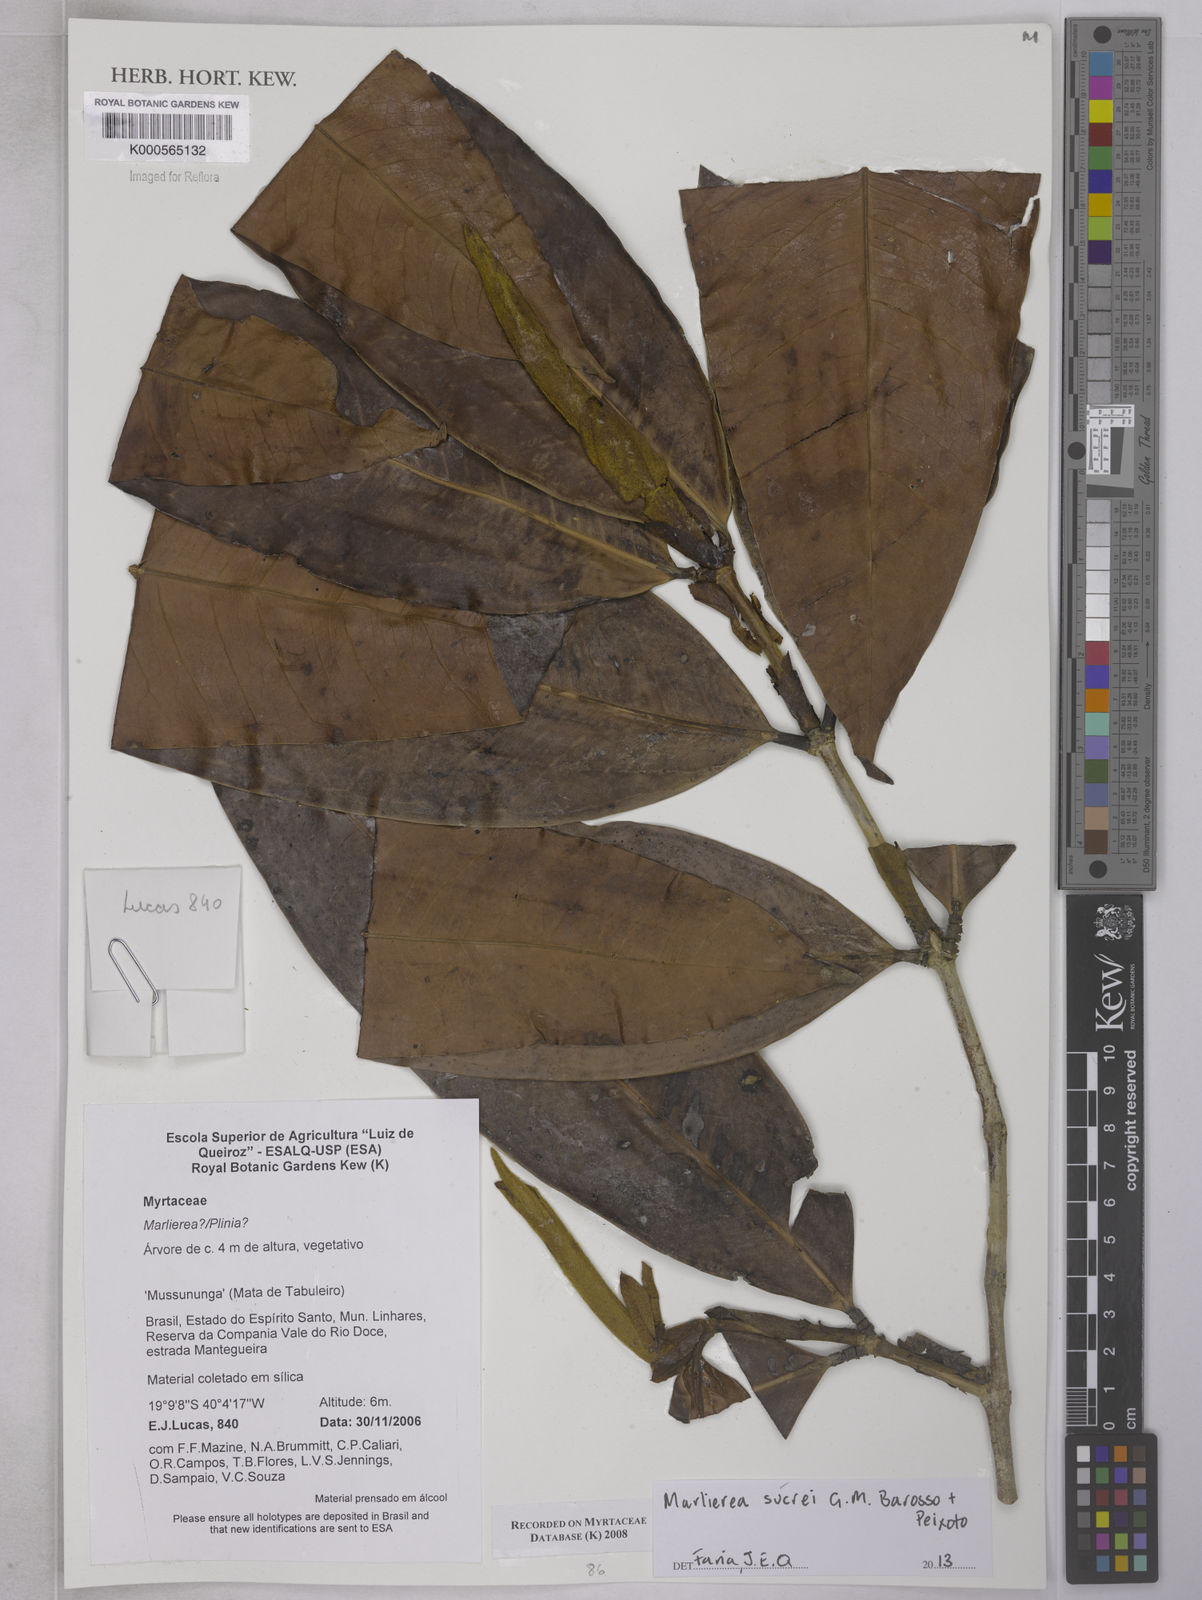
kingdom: Plantae
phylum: Tracheophyta
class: Magnoliopsida
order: Myrtales
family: Myrtaceae
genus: Myrcia
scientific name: Myrcia sucrei
